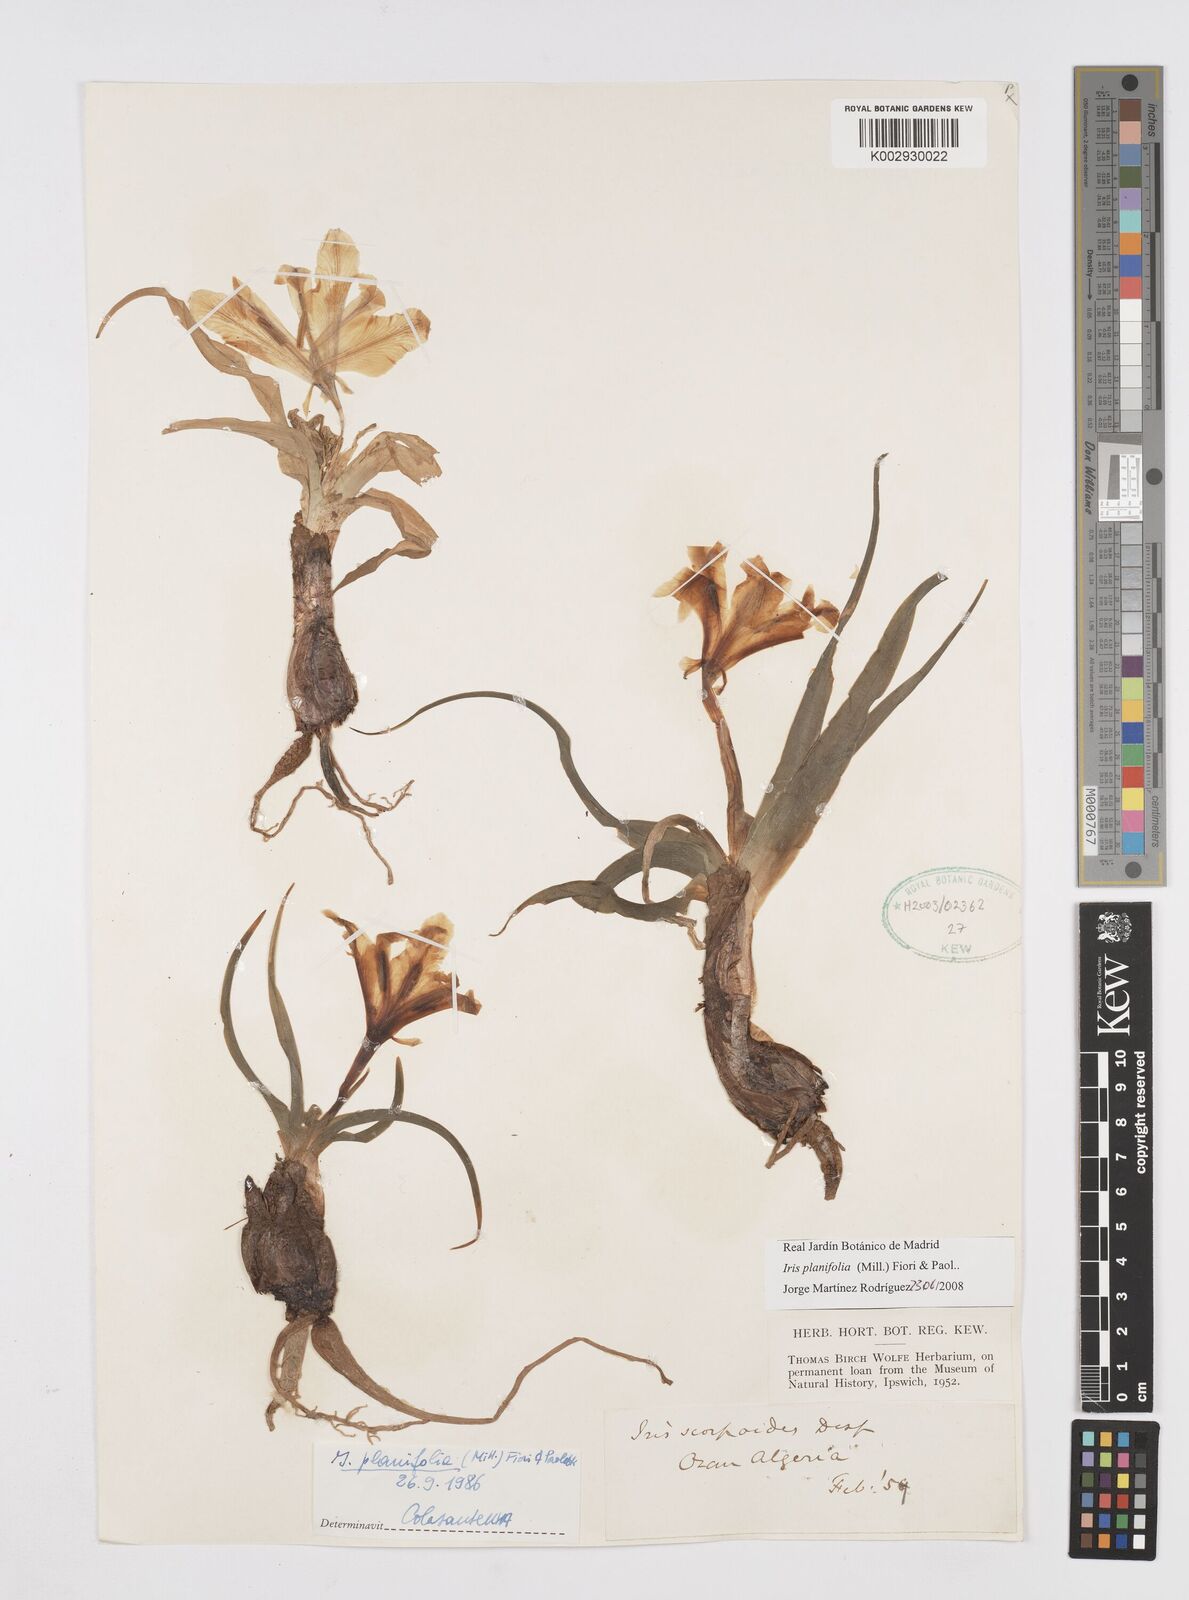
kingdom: Plantae
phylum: Tracheophyta
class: Liliopsida
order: Asparagales
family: Iridaceae
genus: Iris
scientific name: Iris planifolia
